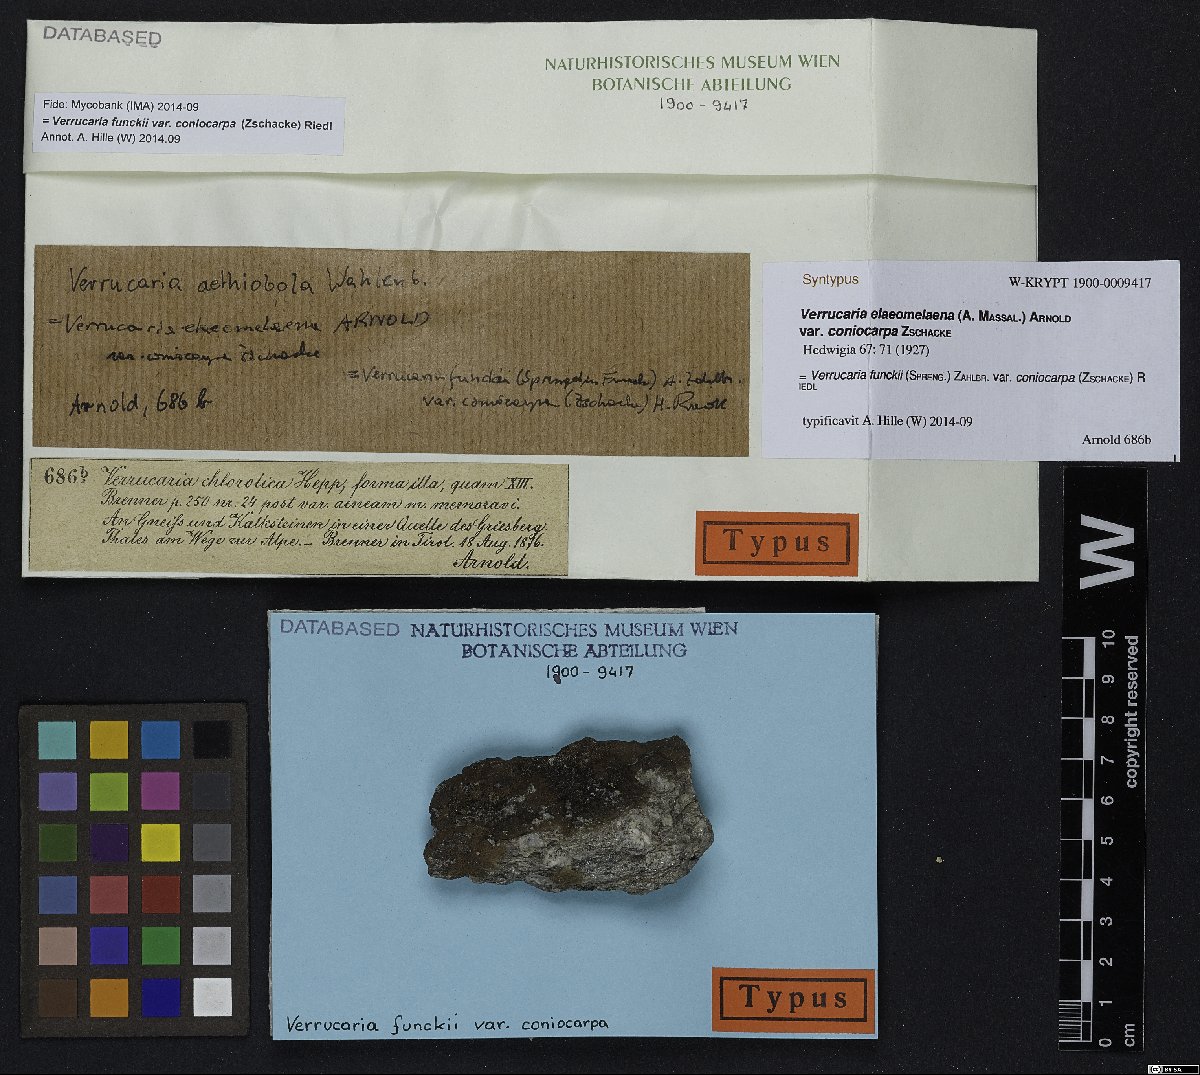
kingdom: Fungi
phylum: Ascomycota
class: Eurotiomycetes
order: Verrucariales
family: Verrucariaceae
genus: Verrucaria
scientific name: Verrucaria funckii
